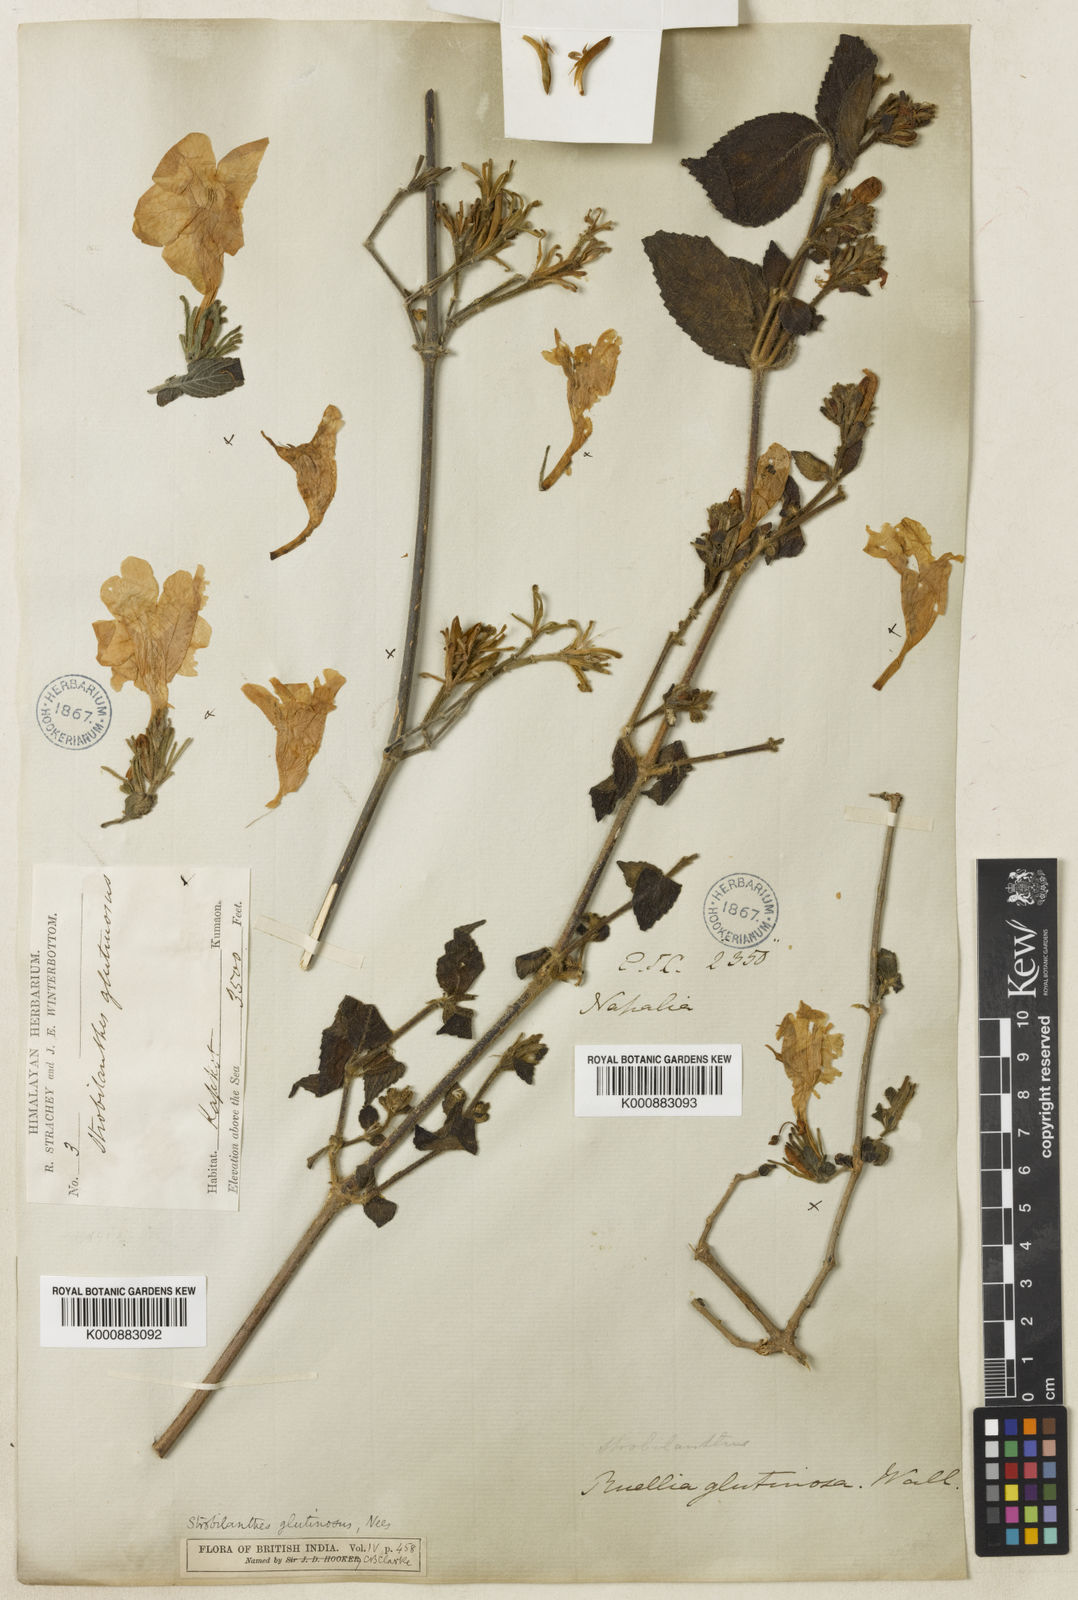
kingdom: Plantae
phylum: Tracheophyta
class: Magnoliopsida
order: Lamiales
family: Acanthaceae
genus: Strobilanthes
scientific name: Strobilanthes glutinosa
